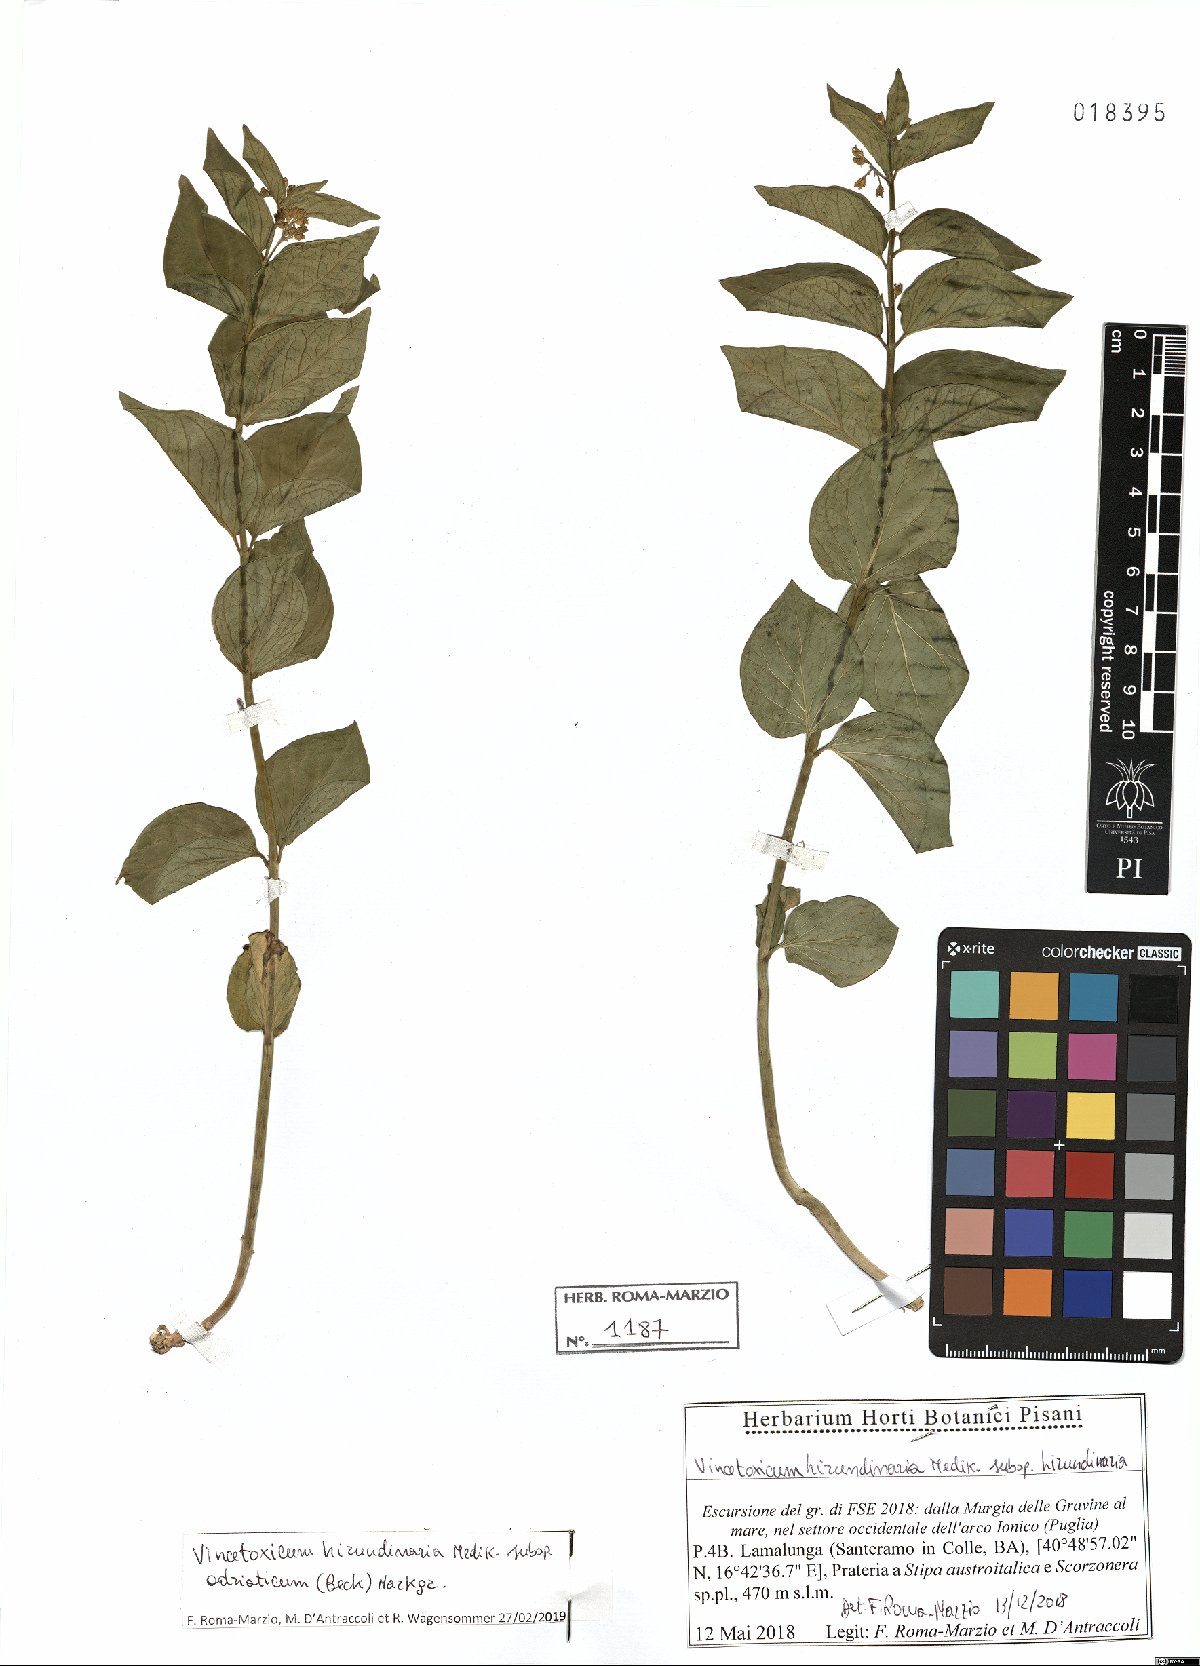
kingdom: Plantae
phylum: Tracheophyta
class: Magnoliopsida
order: Gentianales
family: Apocynaceae
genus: Vincetoxicum
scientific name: Vincetoxicum hirundinaria
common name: White swallowwort
